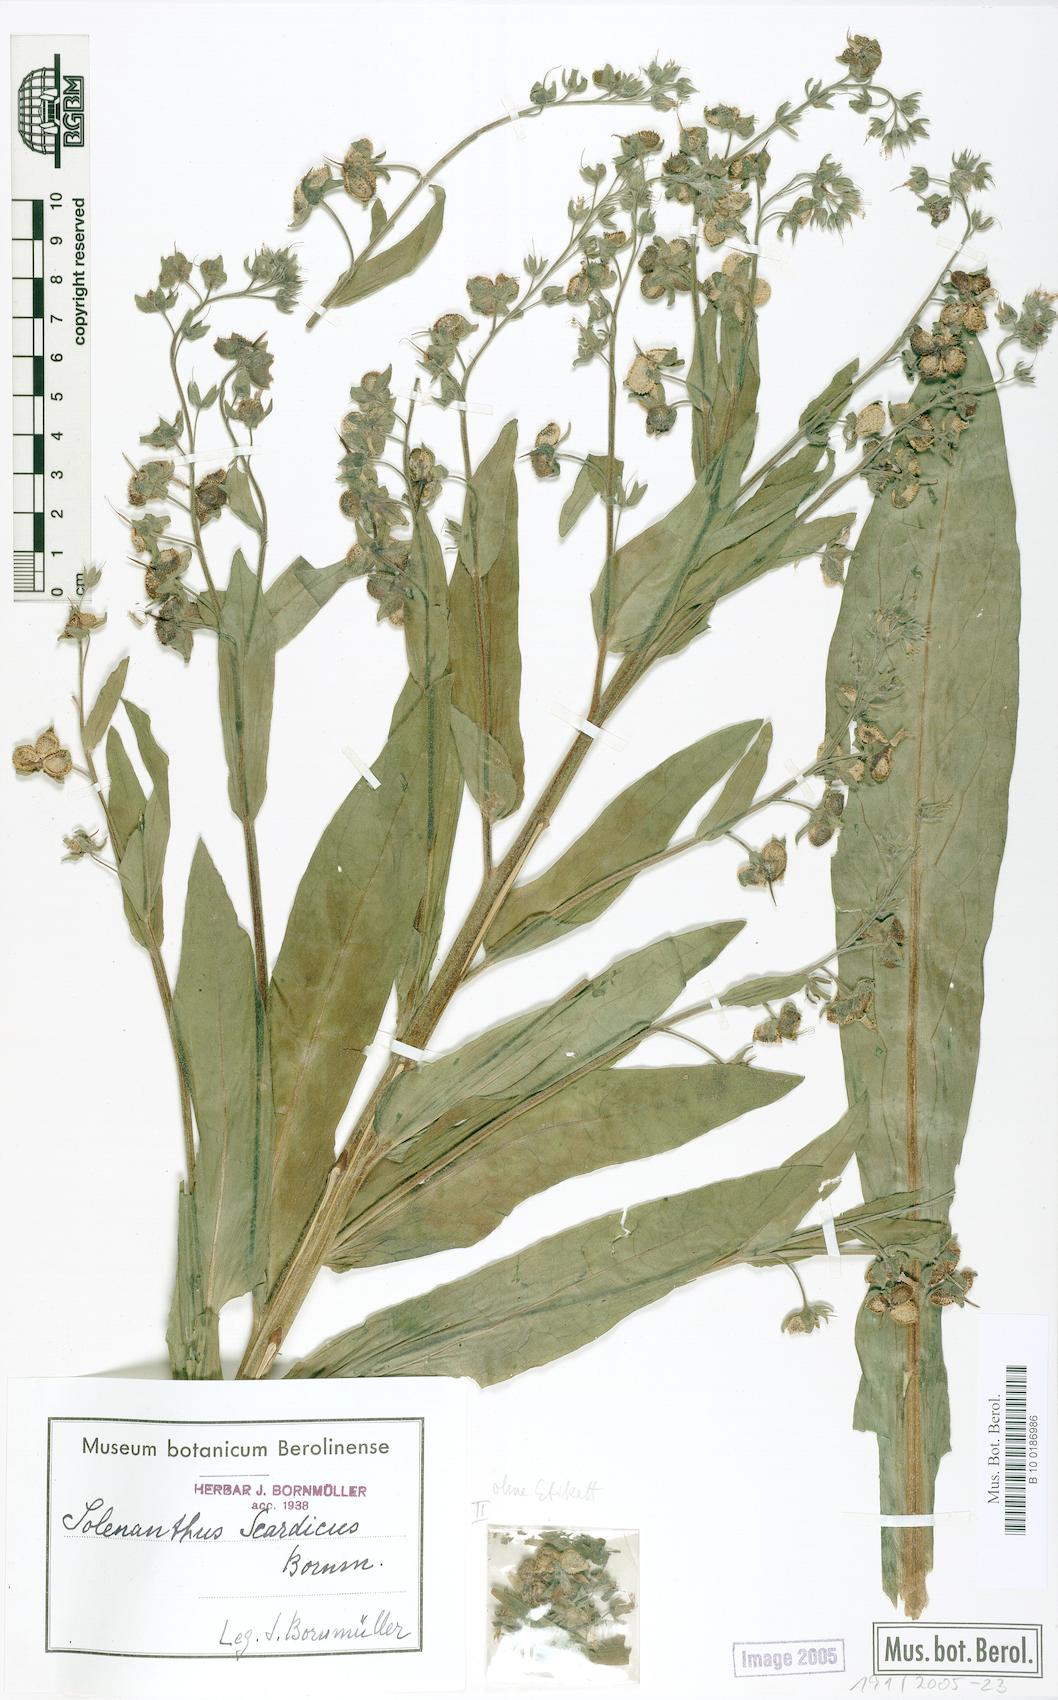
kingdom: Plantae
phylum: Tracheophyta
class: Magnoliopsida
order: Boraginales
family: Boraginaceae
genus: Solenanthus
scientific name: Solenanthus scardicus
